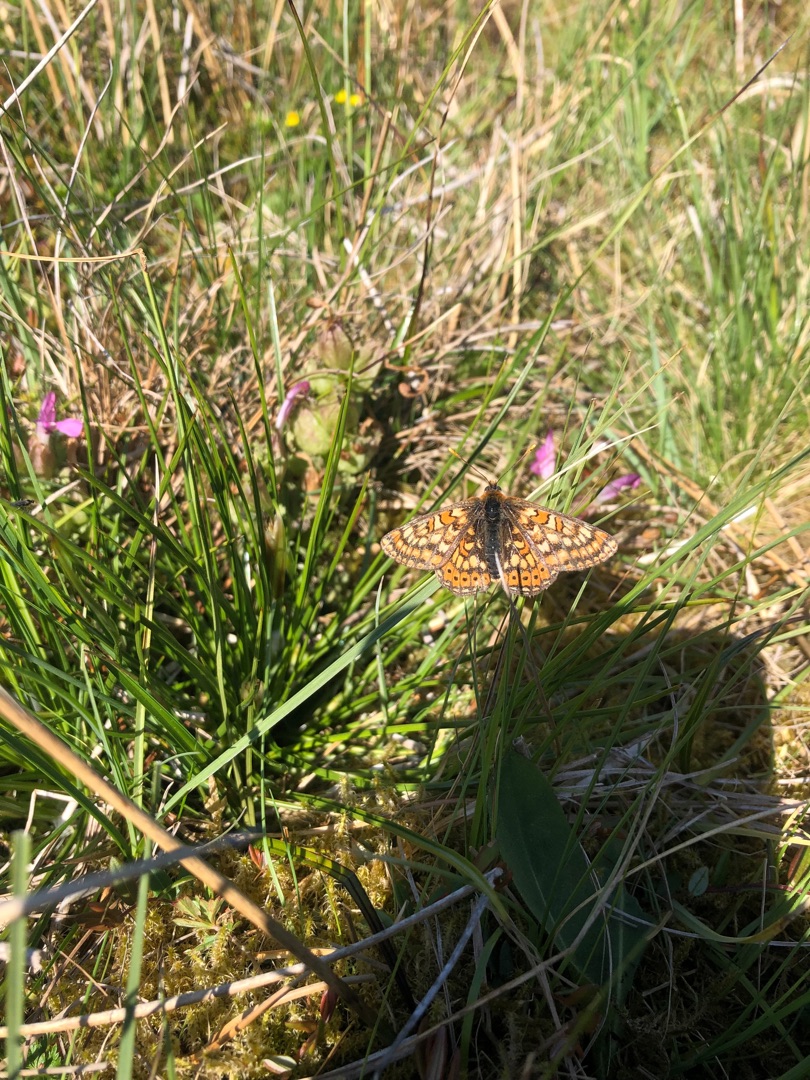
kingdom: Animalia
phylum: Arthropoda
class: Insecta
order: Lepidoptera
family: Nymphalidae
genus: Euphydryas
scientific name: Euphydryas aurinia
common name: Hedepletvinge
